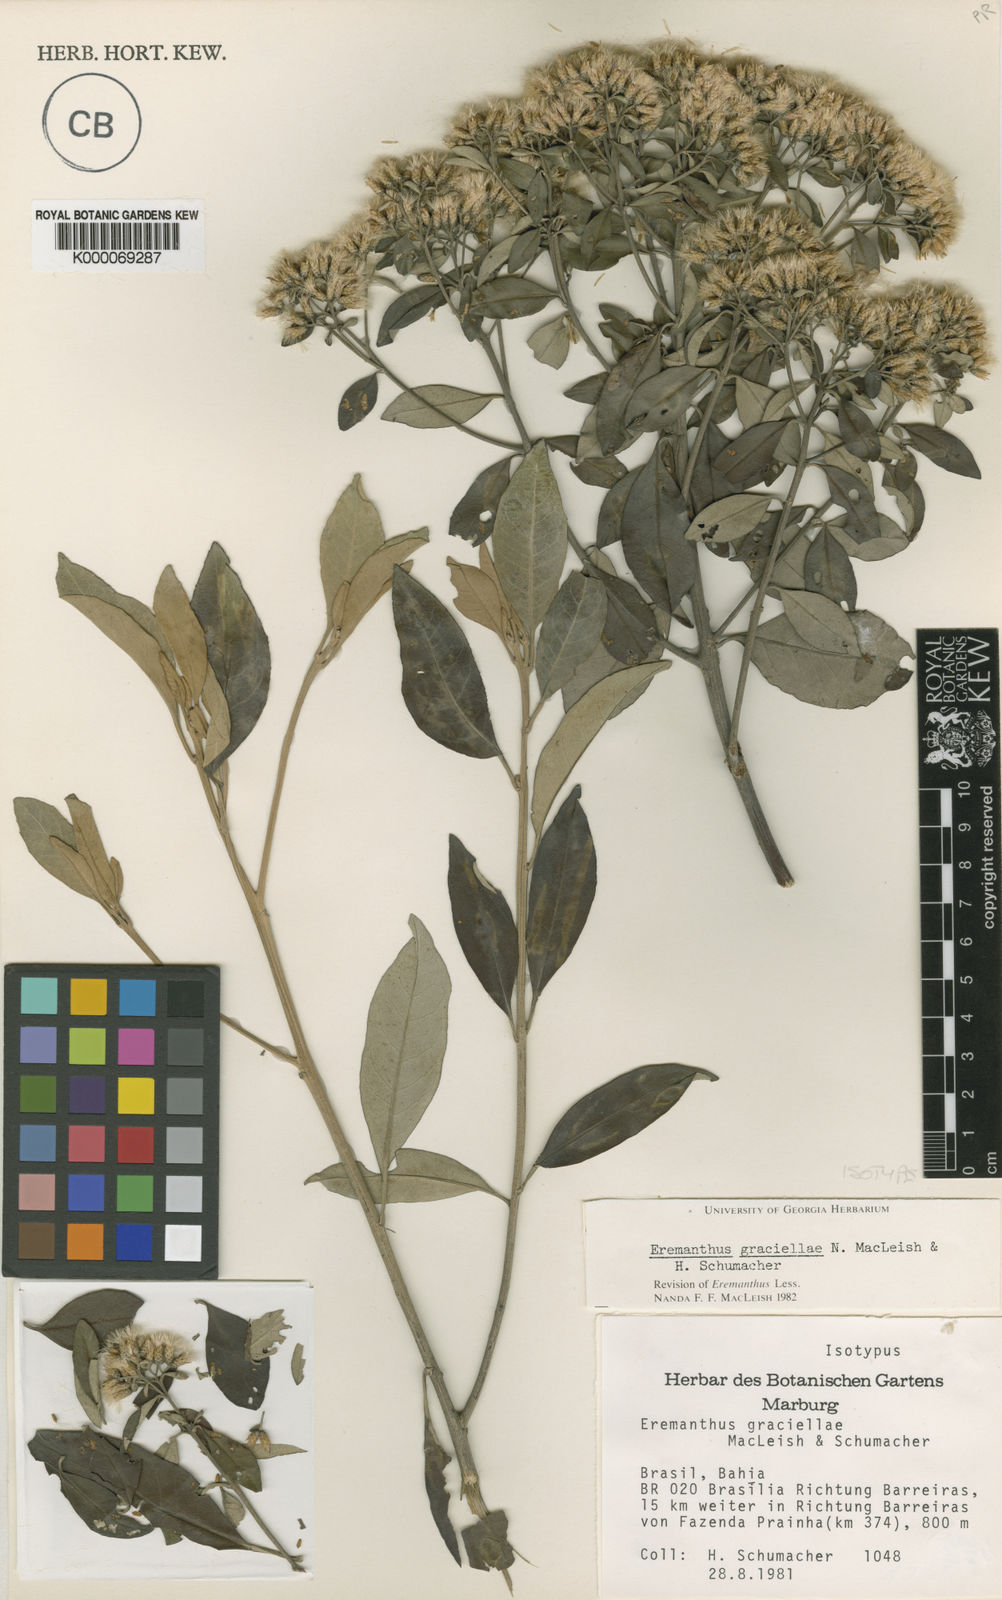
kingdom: Plantae
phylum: Tracheophyta
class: Magnoliopsida
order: Asterales
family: Asteraceae
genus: Eremanthus
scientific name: Eremanthus capitatus
